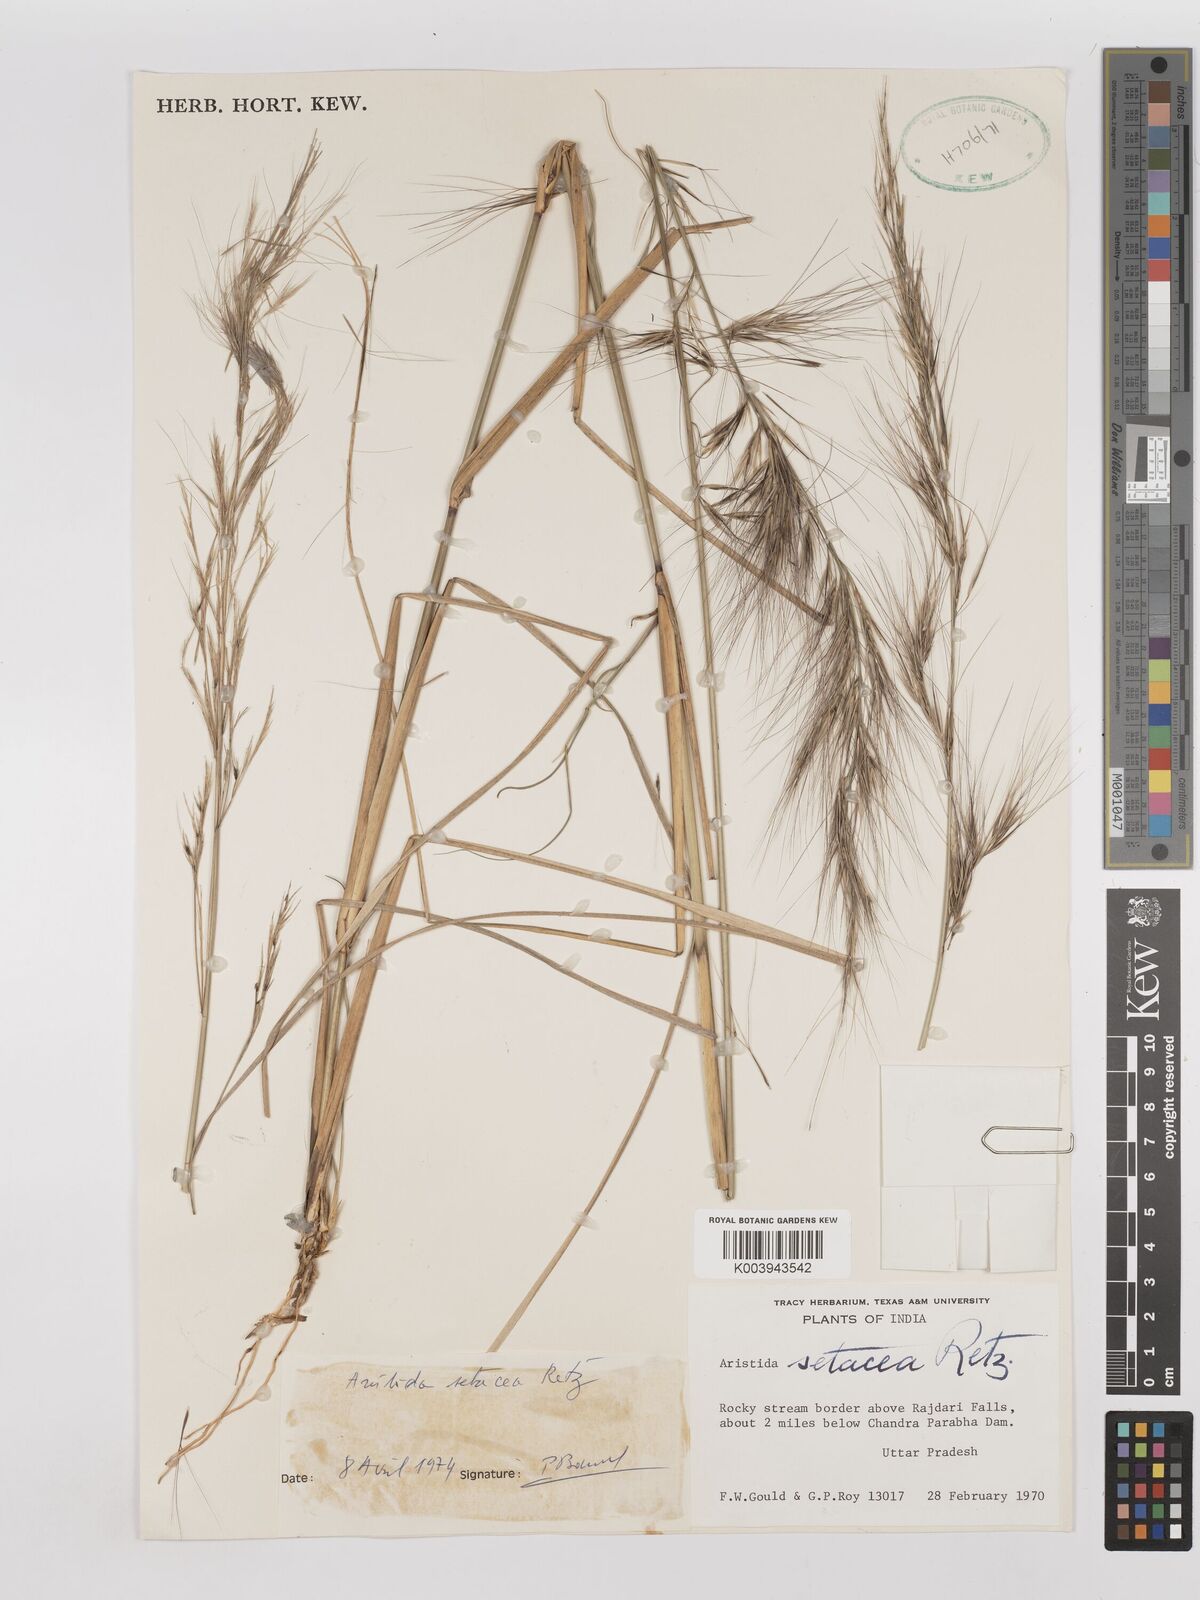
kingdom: Plantae
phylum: Tracheophyta
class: Liliopsida
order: Poales
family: Poaceae
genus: Aristida
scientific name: Aristida setacea
